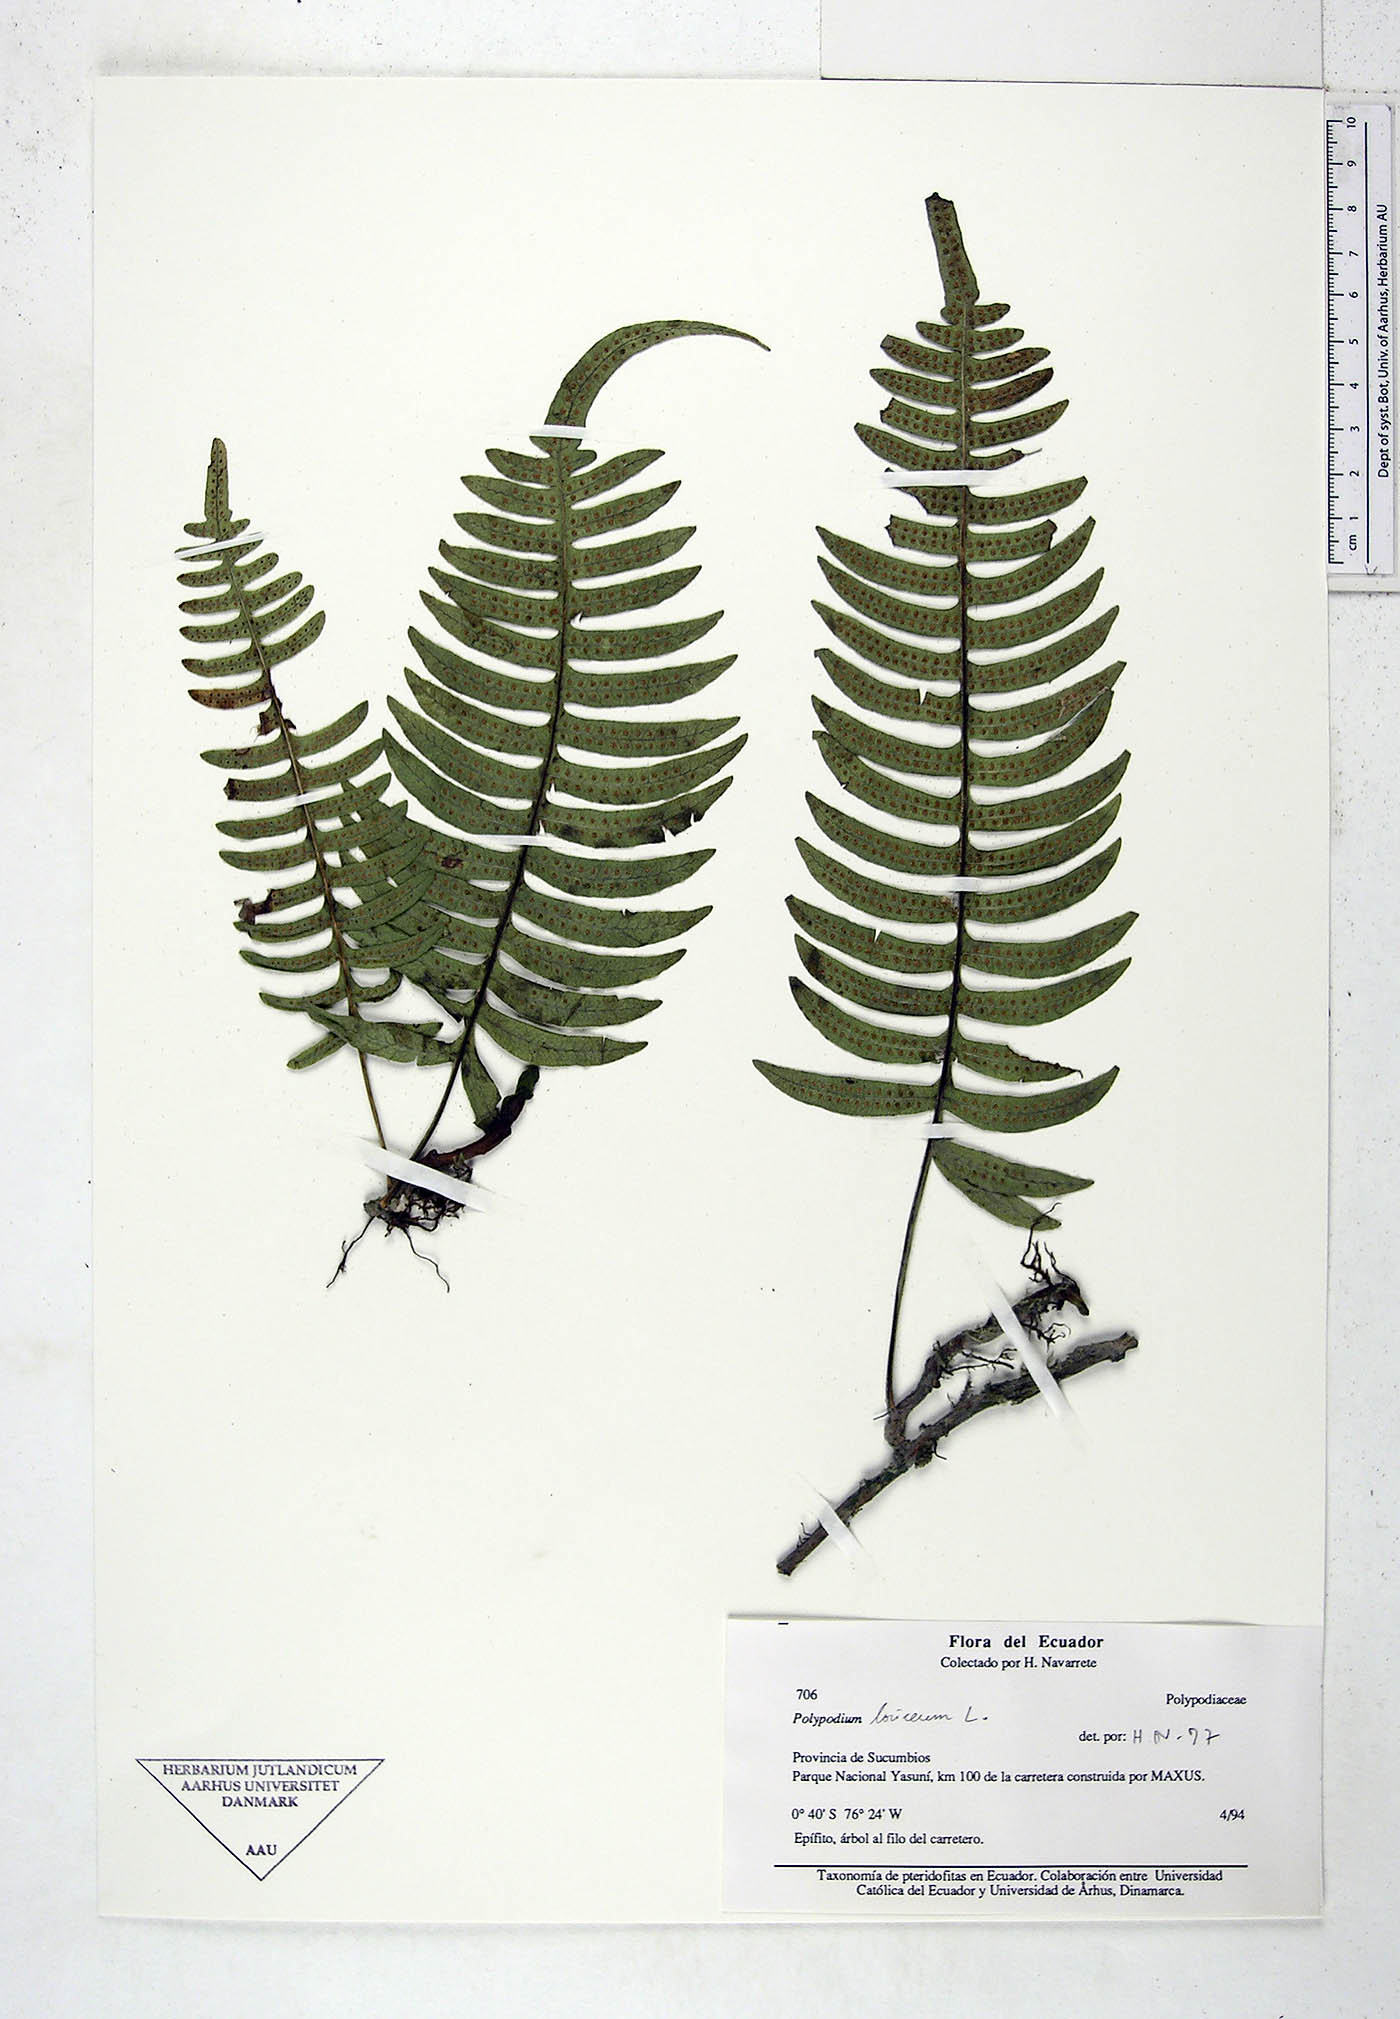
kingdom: Plantae
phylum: Tracheophyta
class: Polypodiopsida
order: Polypodiales
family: Polypodiaceae
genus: Serpocaulon
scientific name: Serpocaulon loriceum
